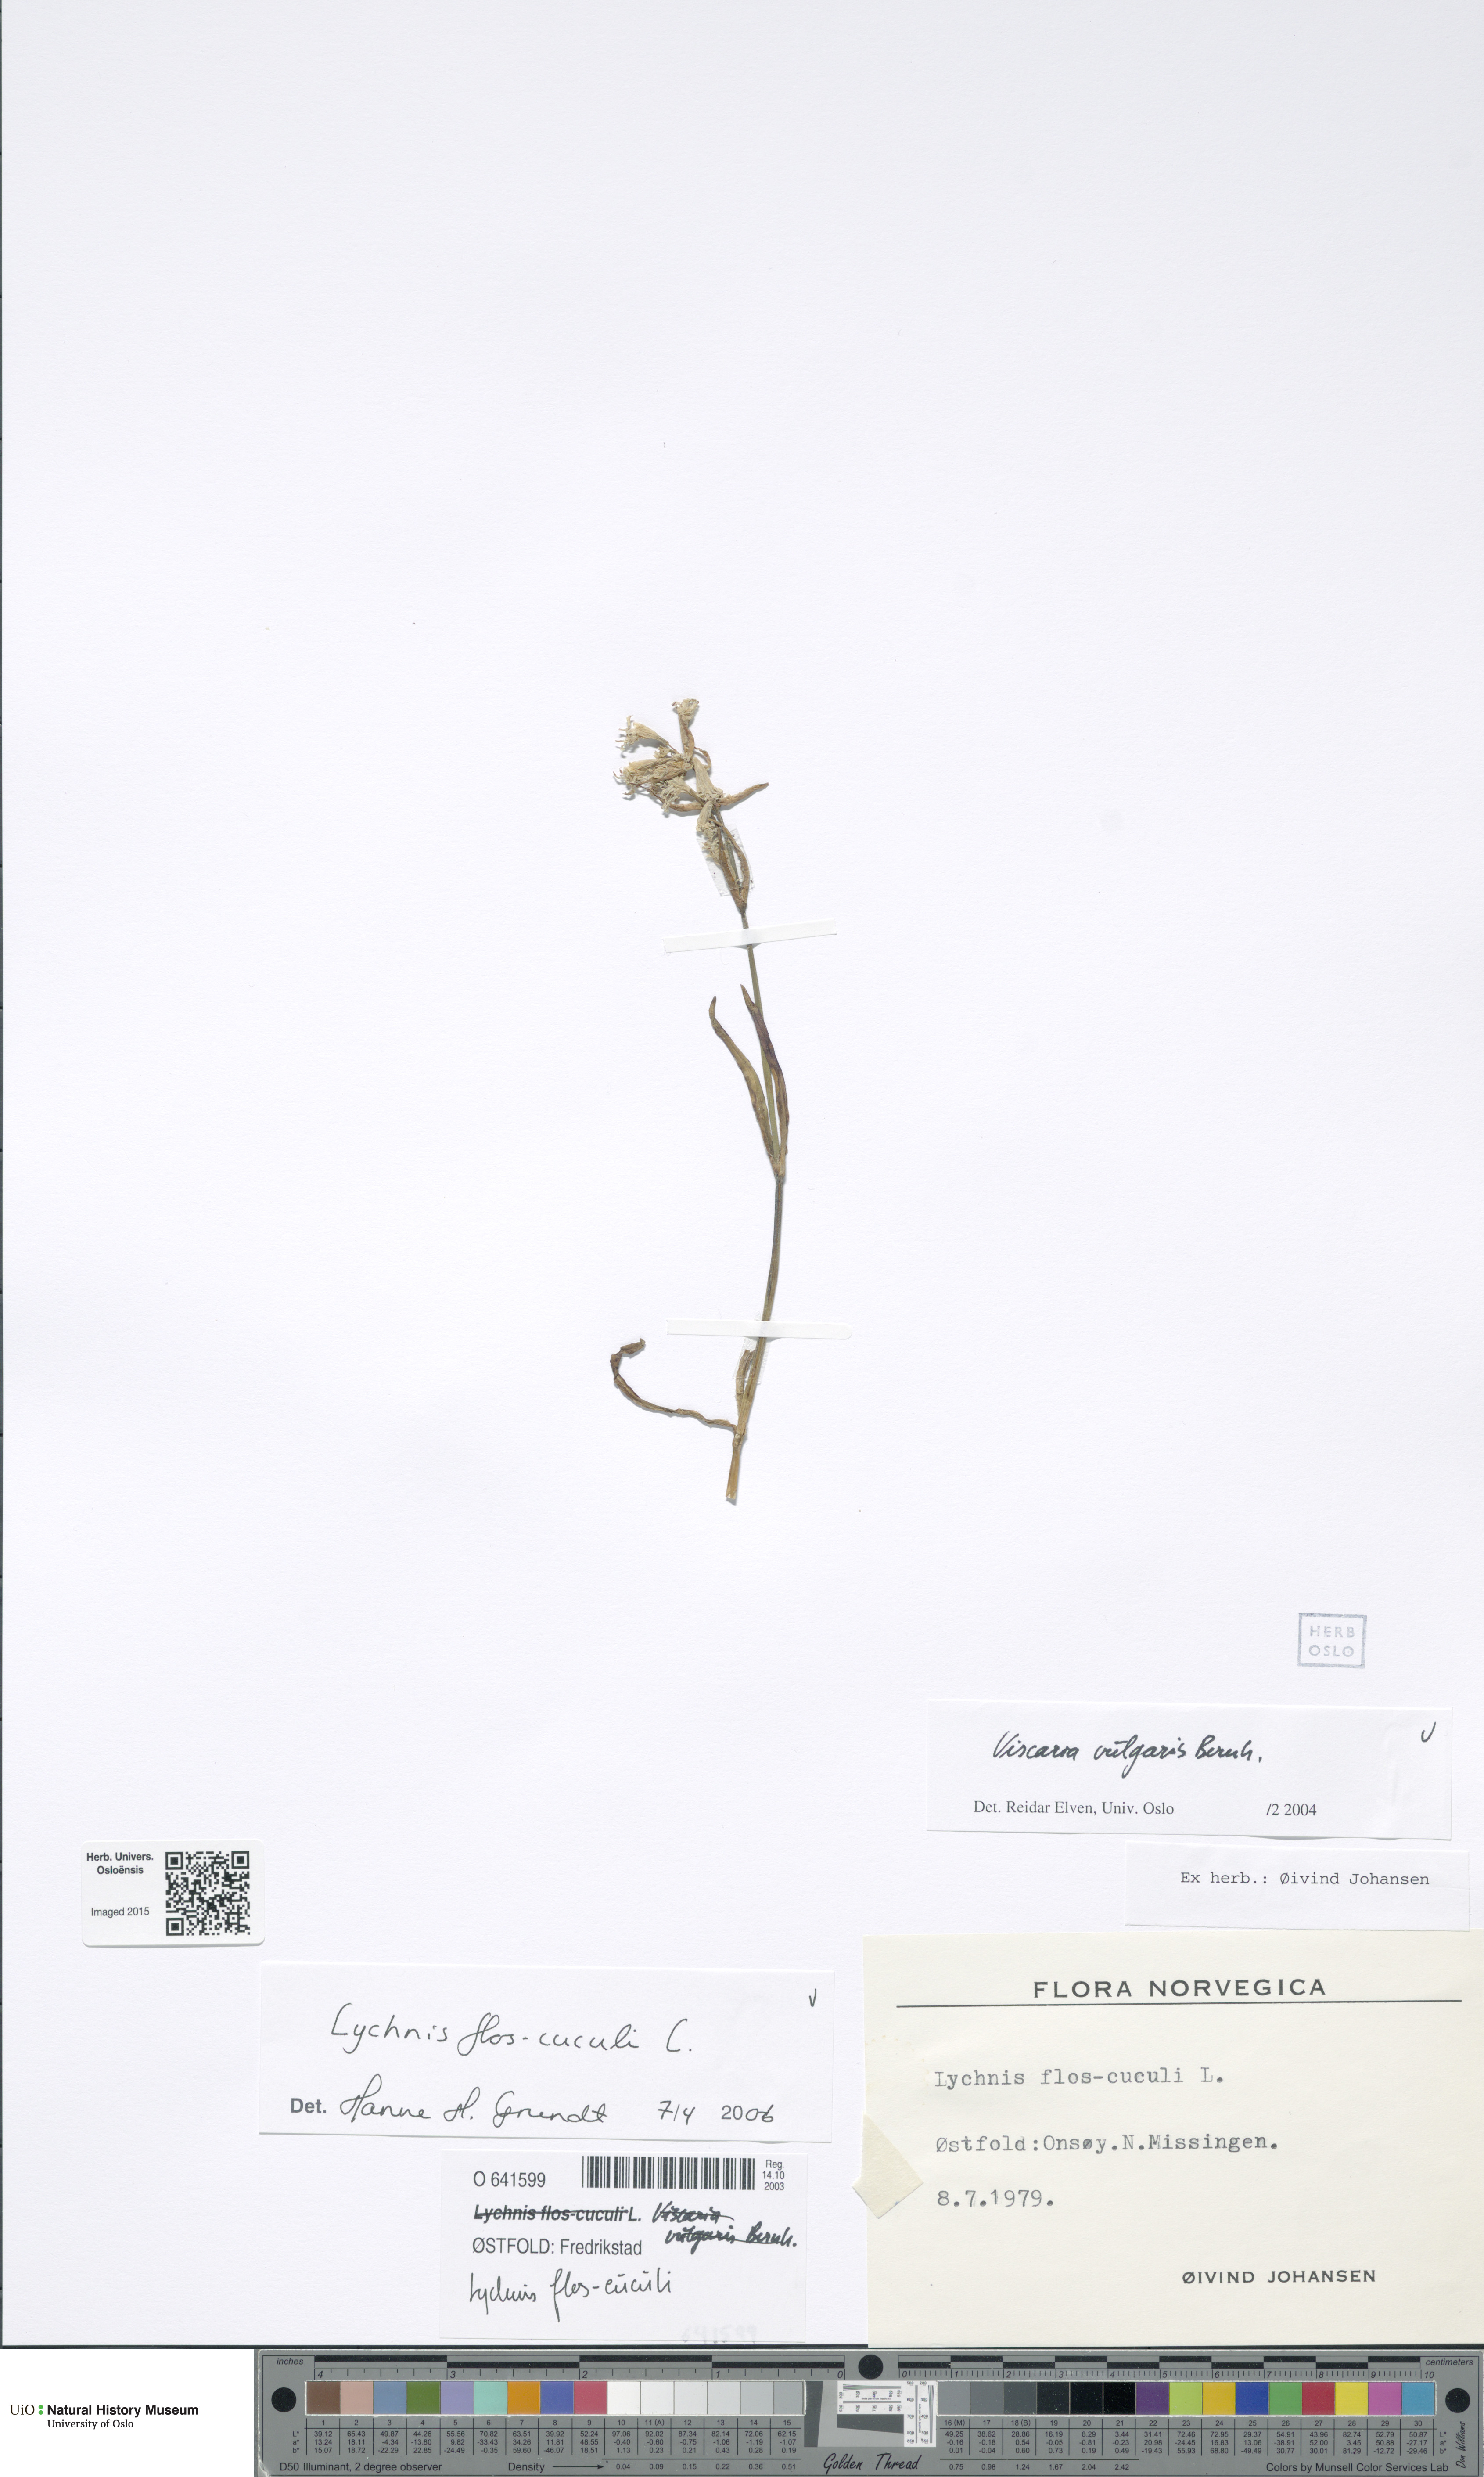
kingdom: Plantae
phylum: Tracheophyta
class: Magnoliopsida
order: Caryophyllales
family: Caryophyllaceae
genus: Silene
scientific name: Silene flos-cuculi
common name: Ragged-robin
